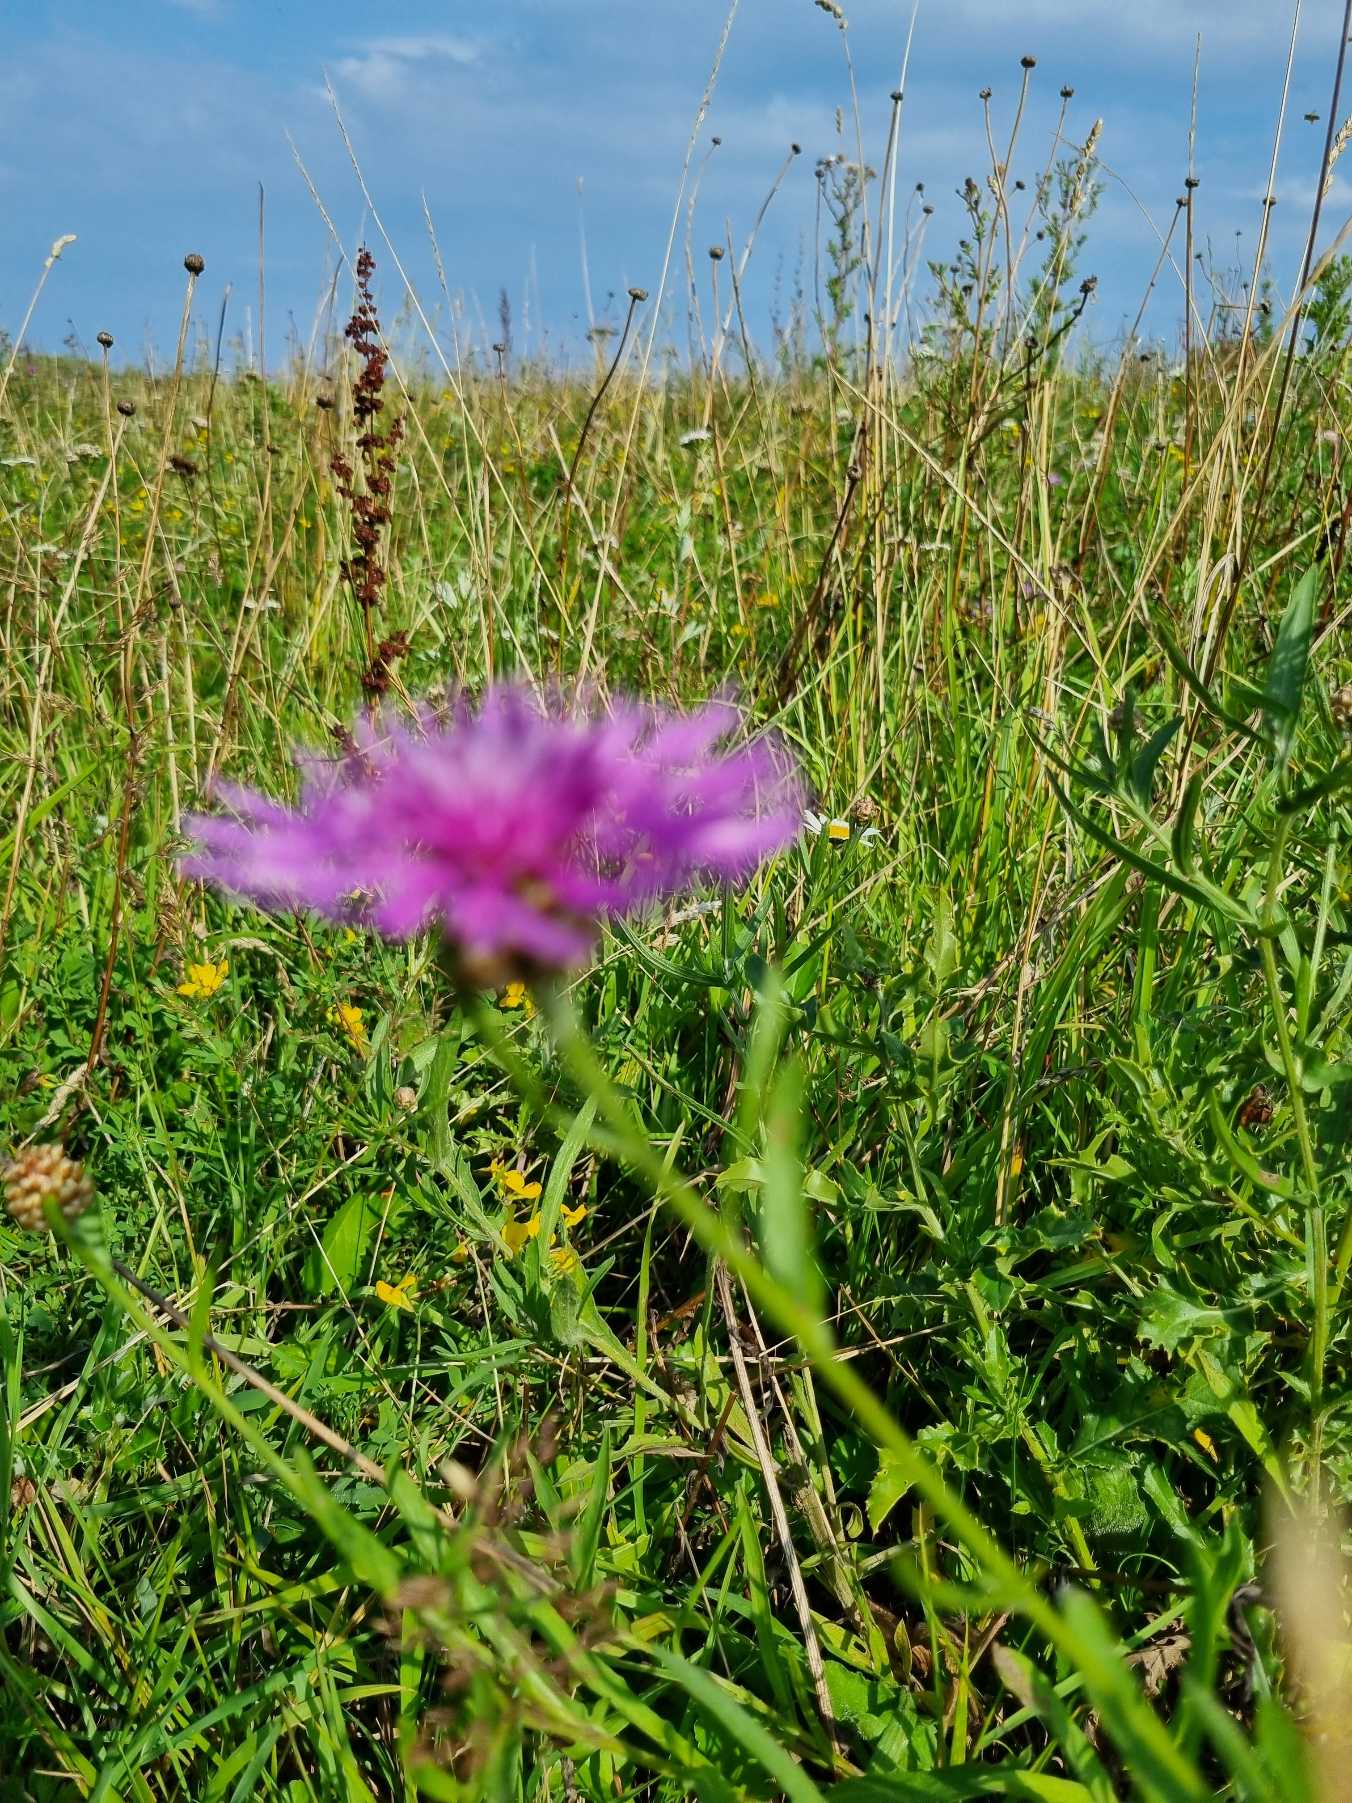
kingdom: Plantae
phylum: Tracheophyta
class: Magnoliopsida
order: Asterales
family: Asteraceae
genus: Centaurea
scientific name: Centaurea jacea
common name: Almindelig knopurt
